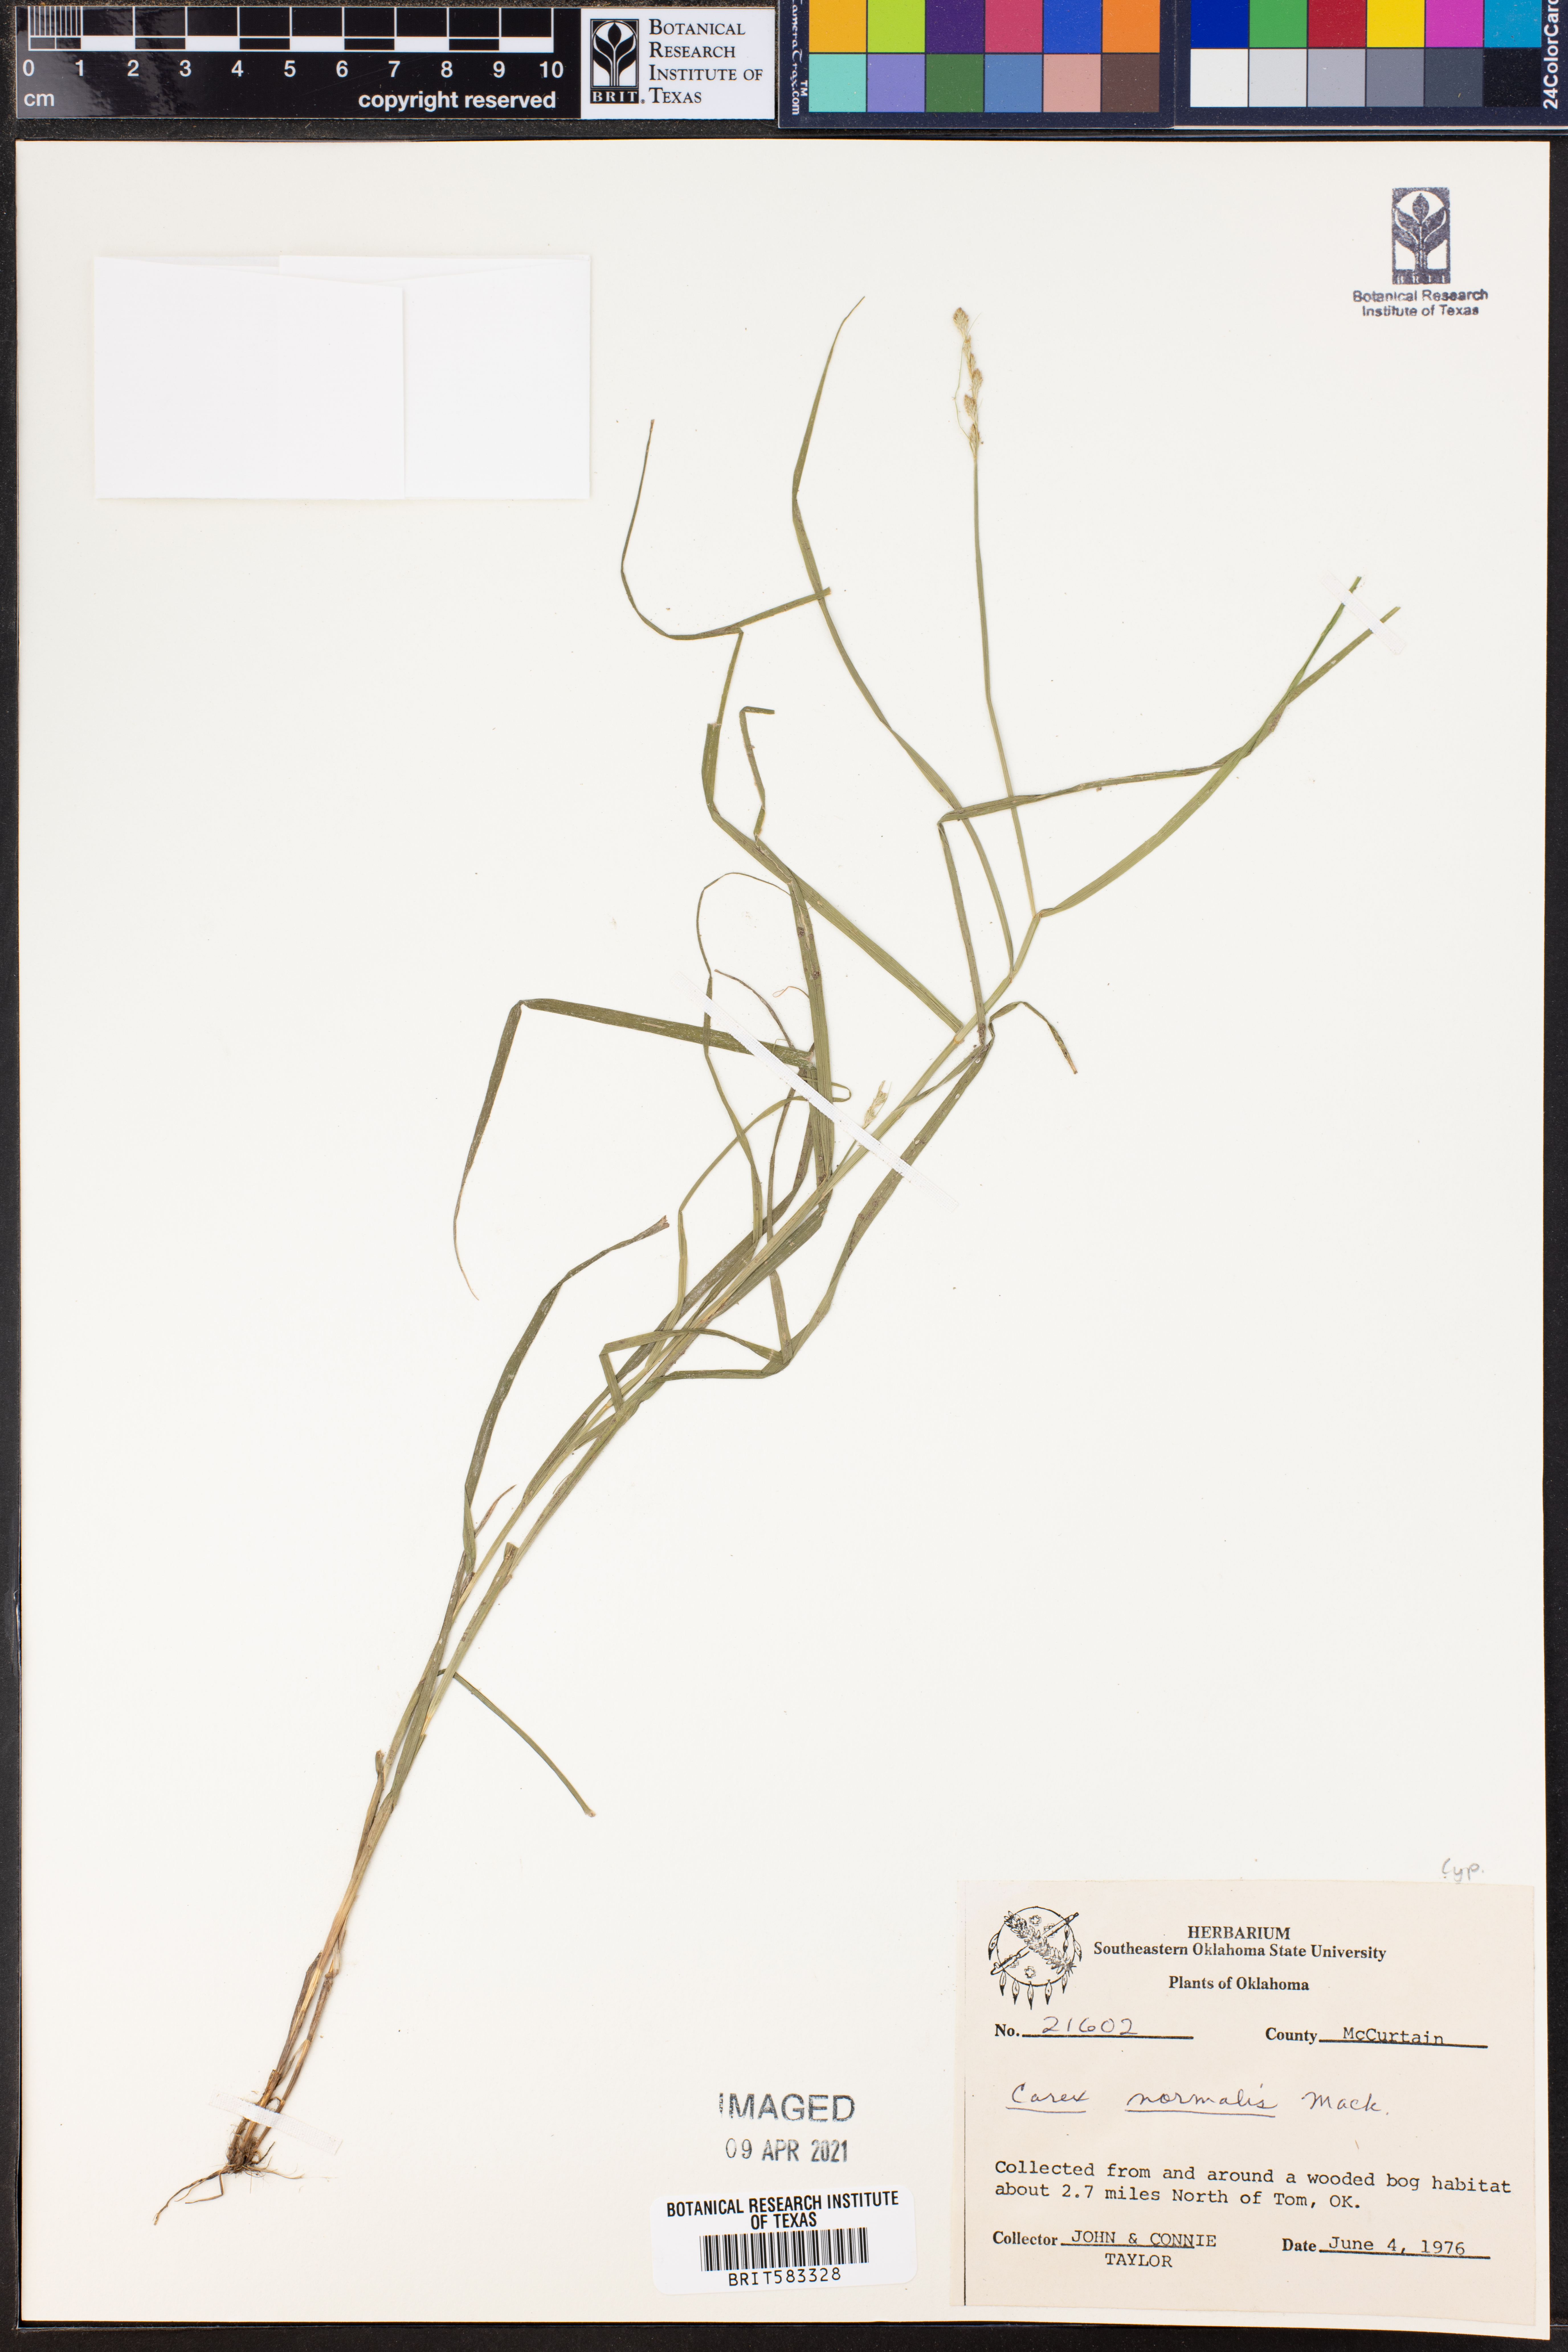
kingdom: Plantae
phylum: Tracheophyta
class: Liliopsida
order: Poales
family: Cyperaceae
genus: Carex
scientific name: Carex normalis
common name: Greater straw sedge
